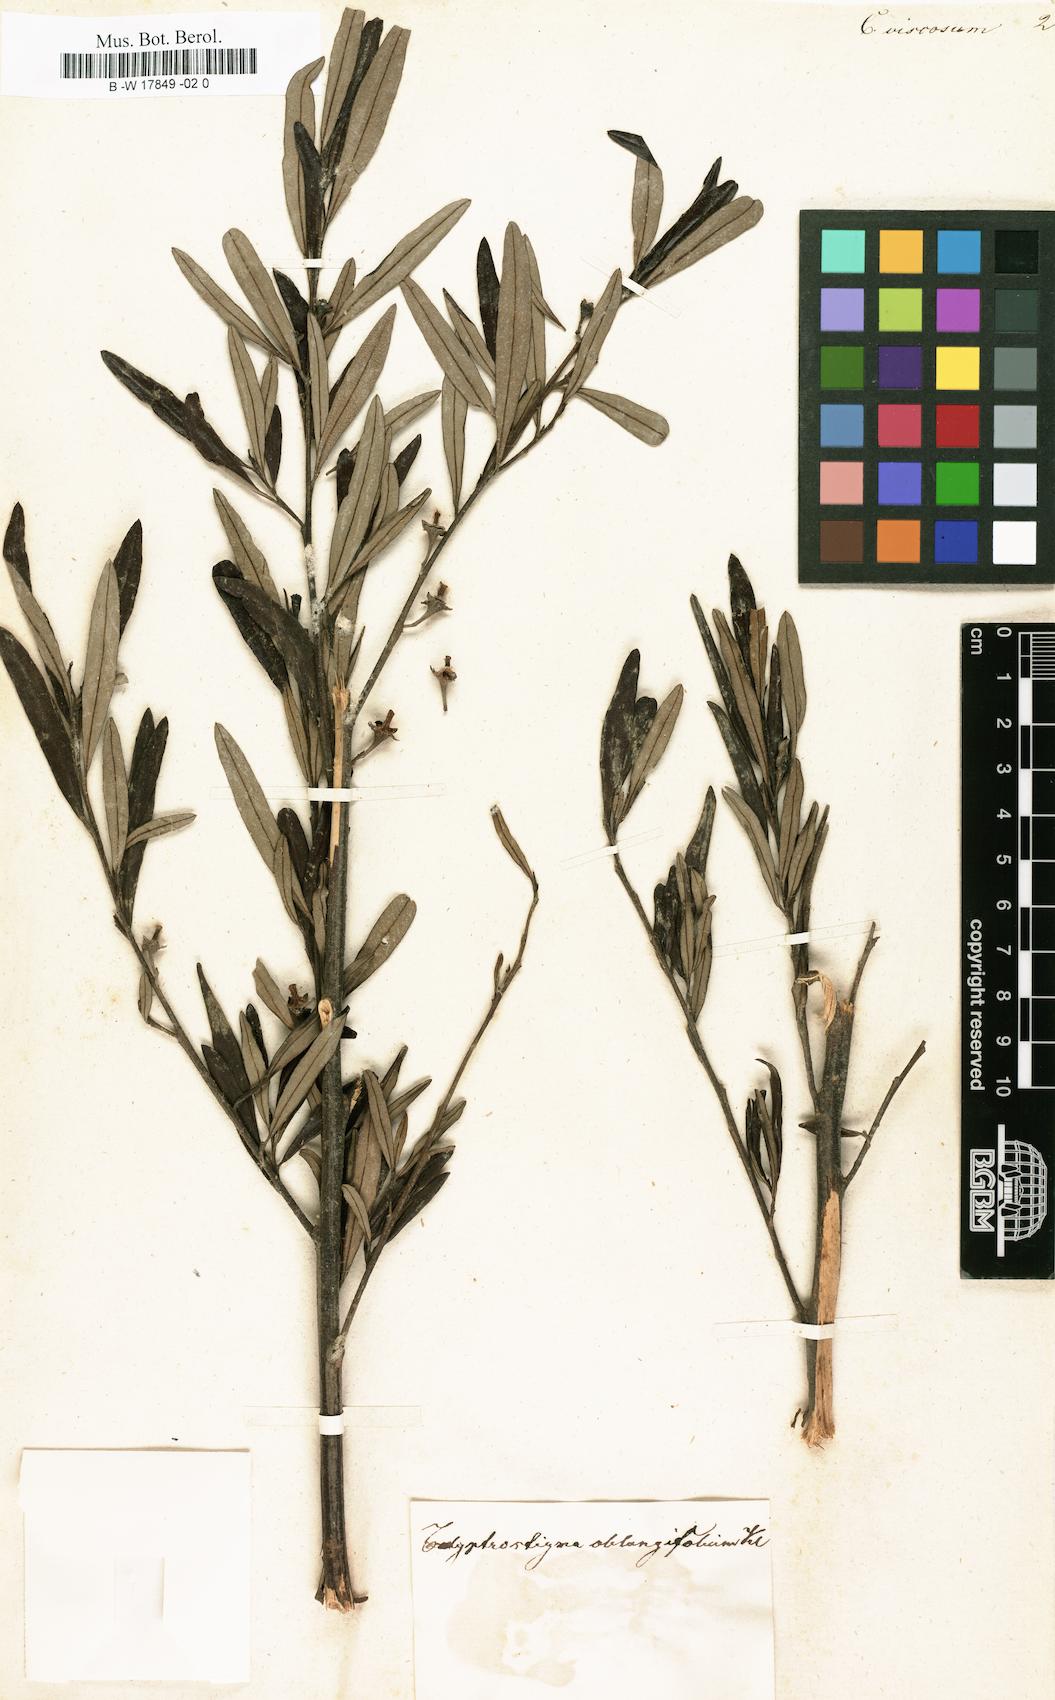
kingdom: Plantae
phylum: Tracheophyta
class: Magnoliopsida
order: Malpighiales
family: Euphorbiaceae
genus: Beyeria
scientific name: Beyeria viscosa
